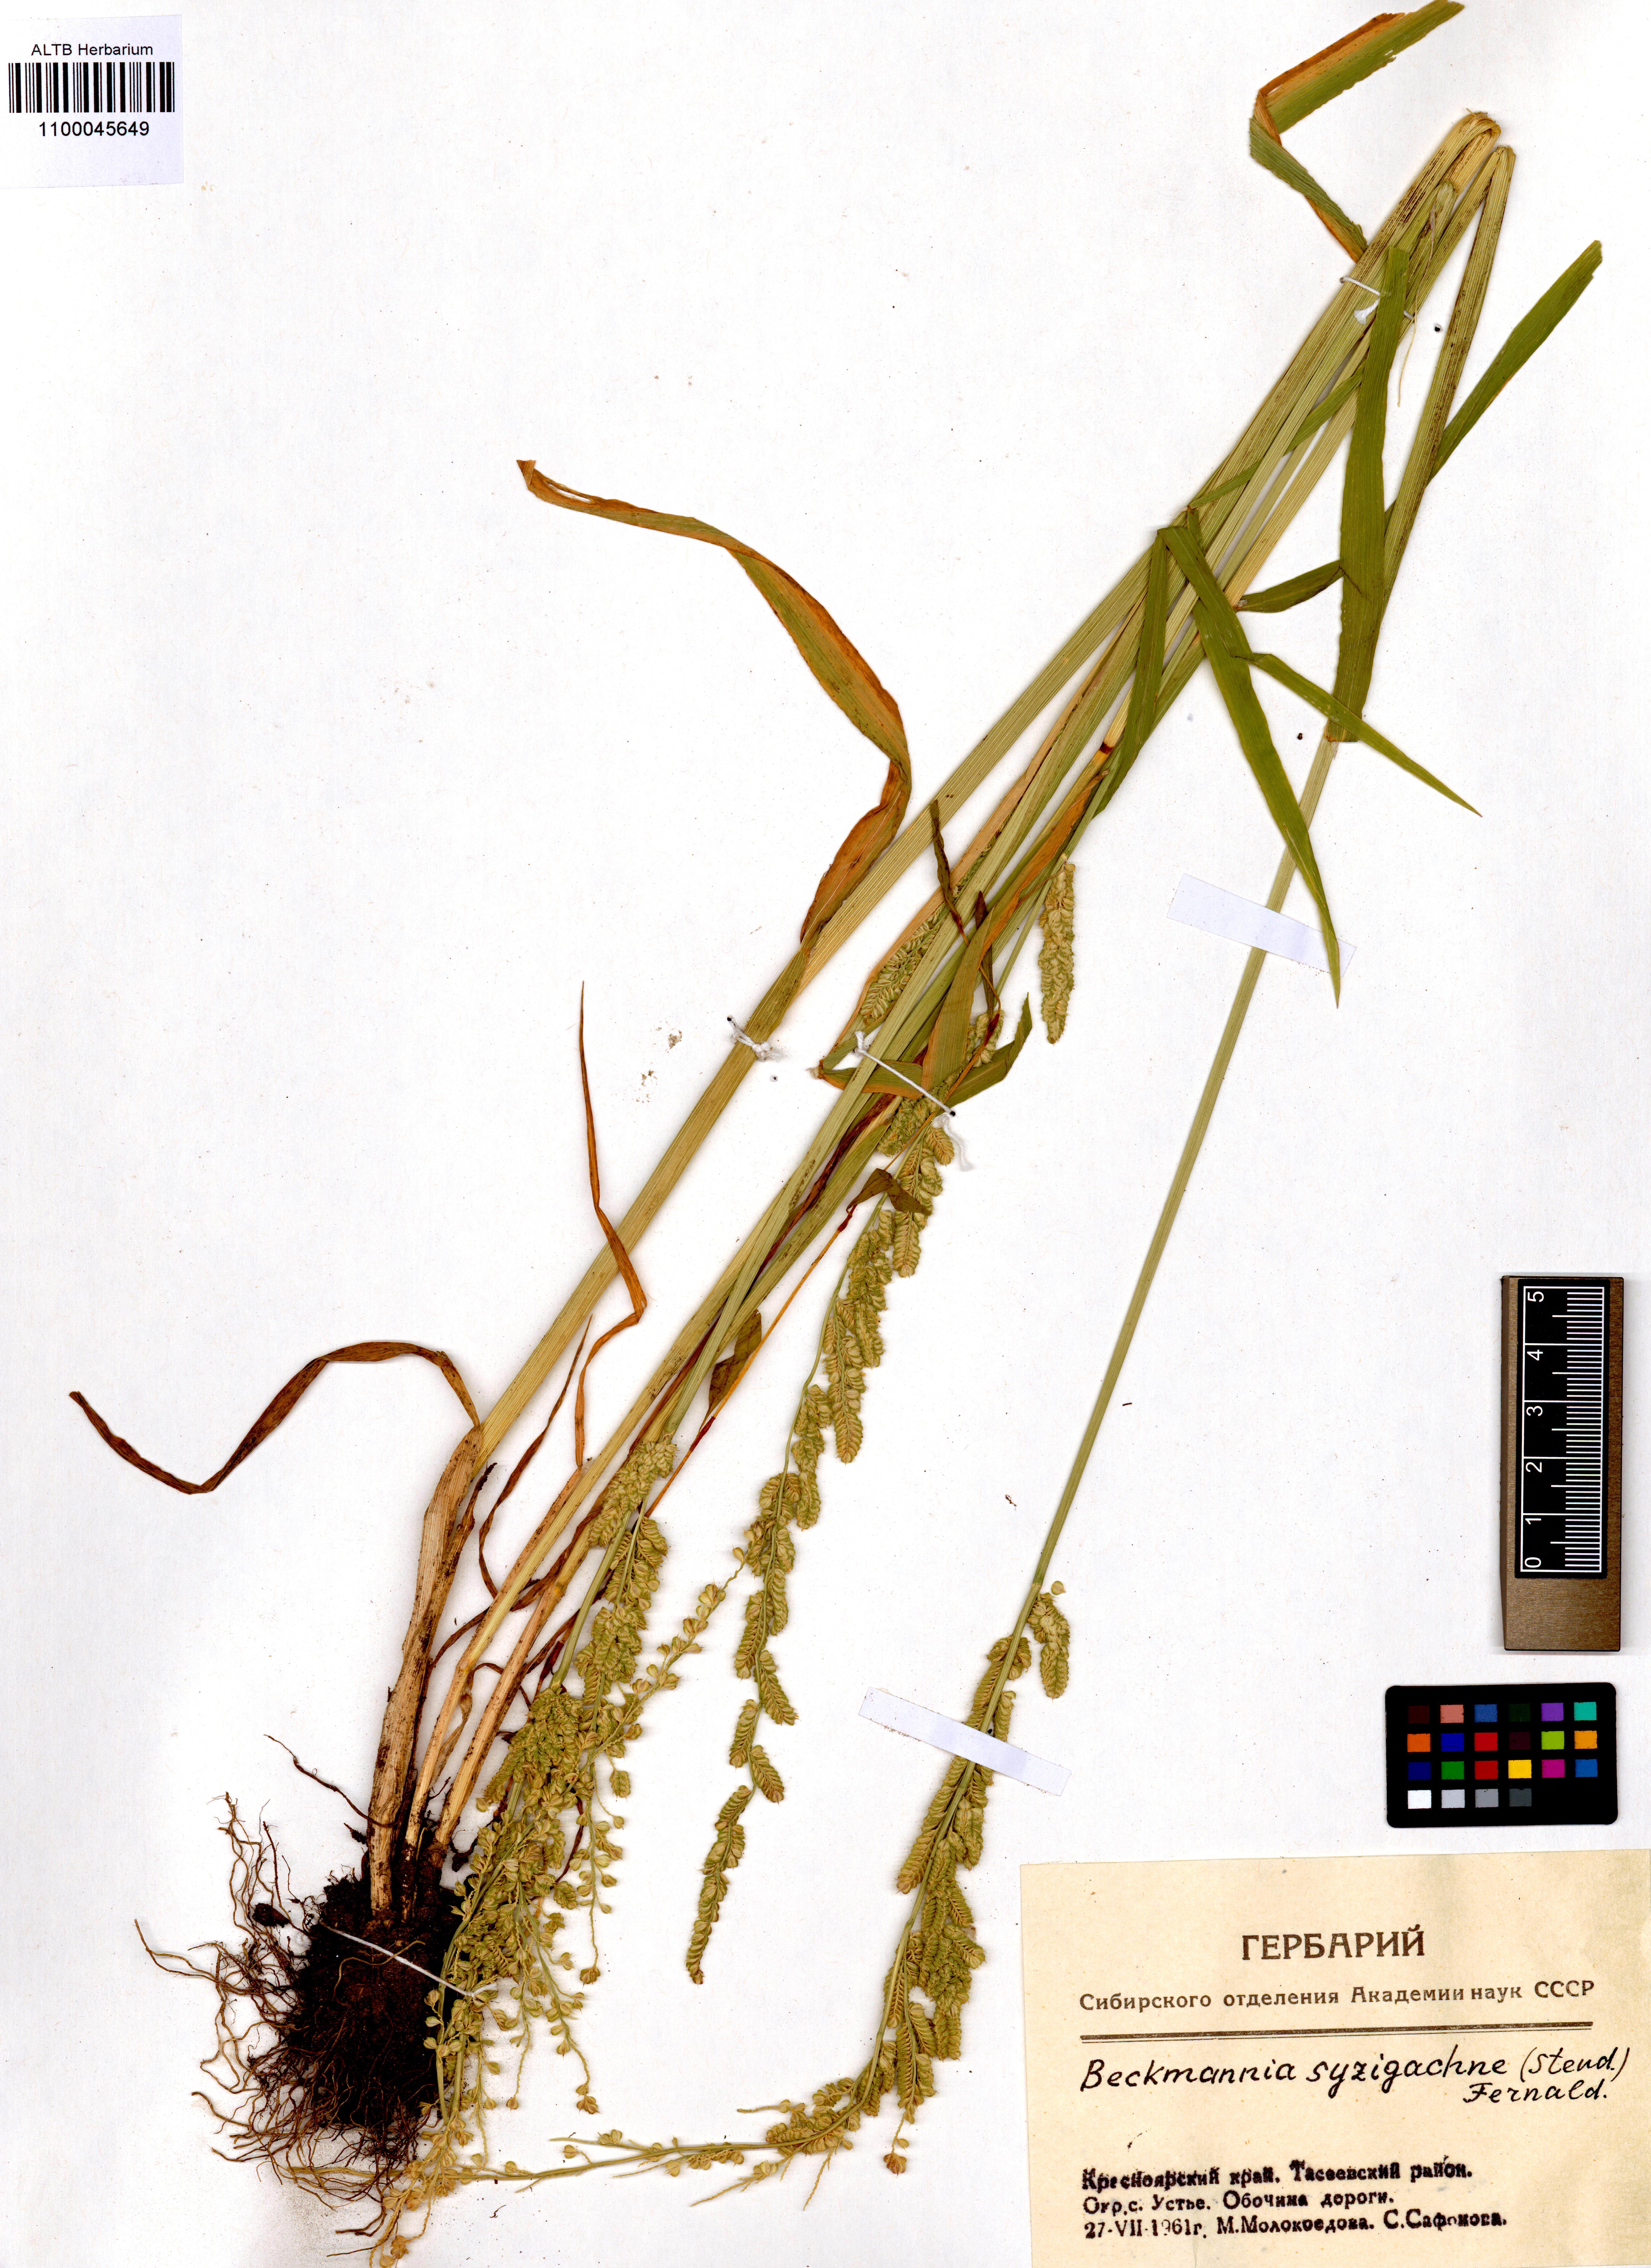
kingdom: Plantae
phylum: Tracheophyta
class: Liliopsida
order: Poales
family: Poaceae
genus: Beckmannia
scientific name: Beckmannia syzigachne
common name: American slough-grass
